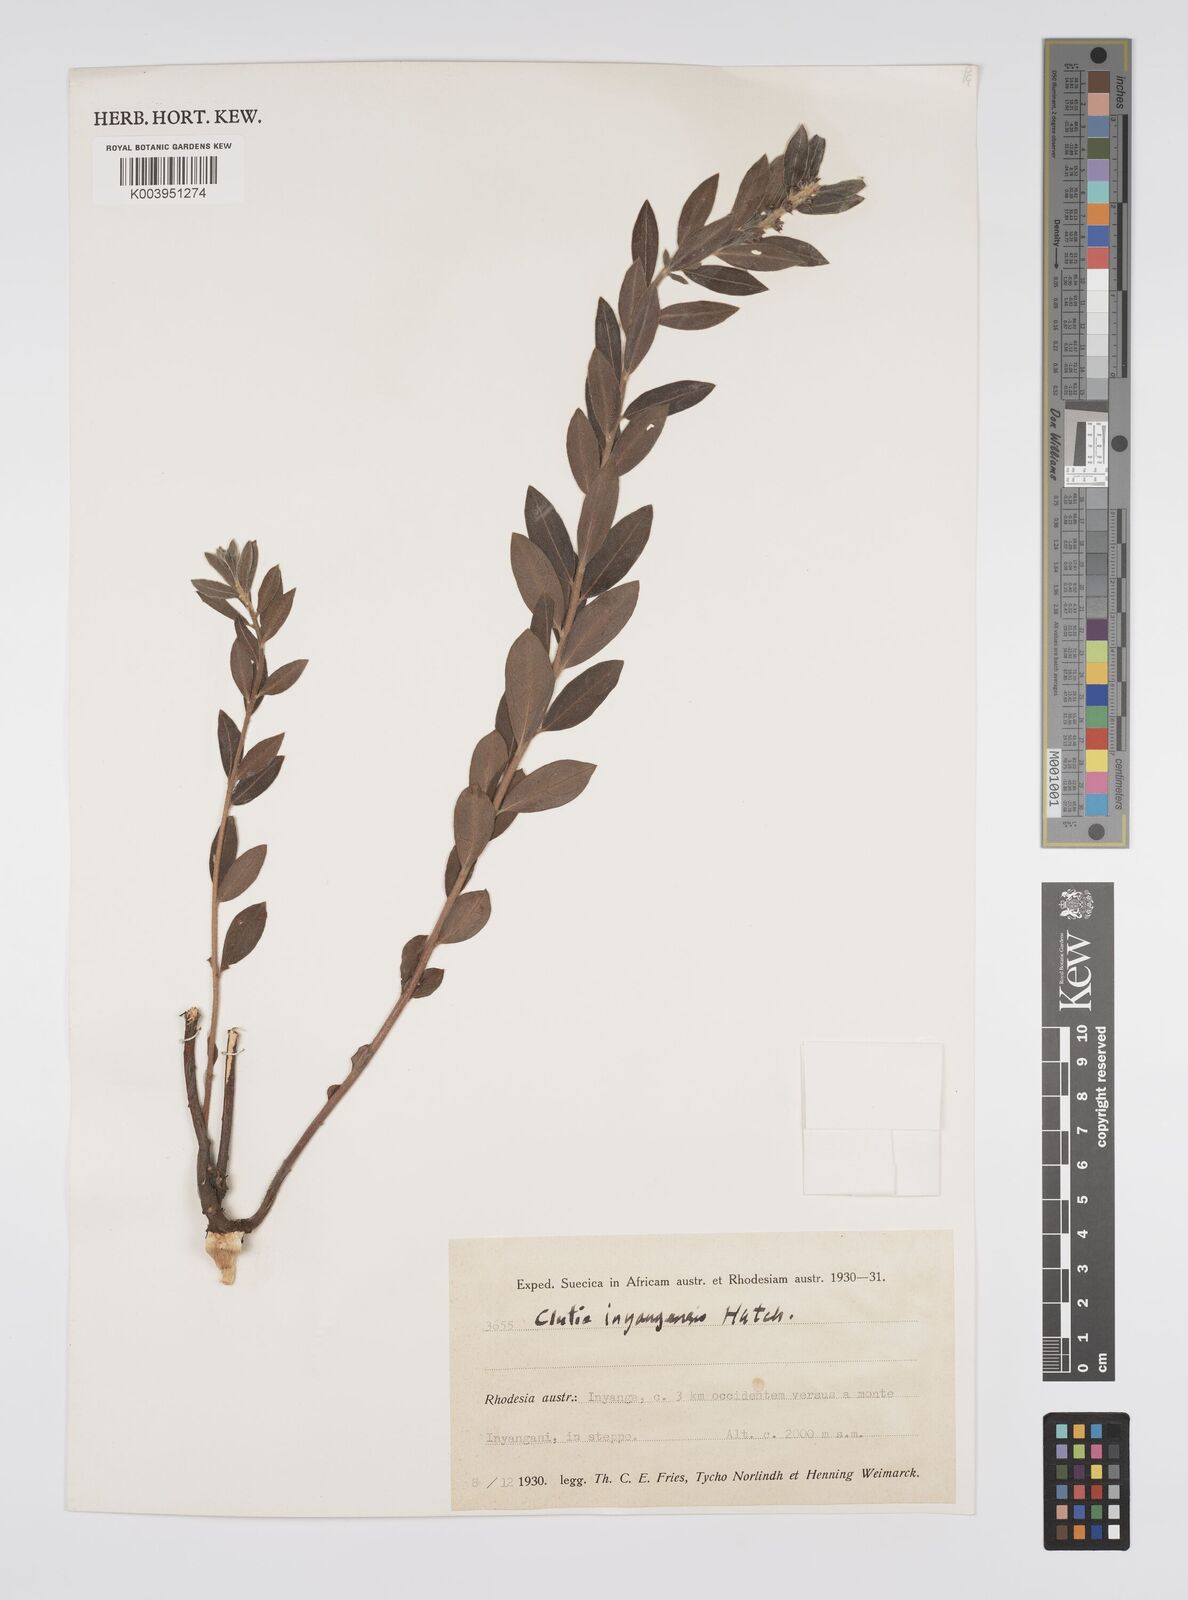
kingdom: Plantae
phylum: Tracheophyta
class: Magnoliopsida
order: Malpighiales
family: Peraceae
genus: Clutia
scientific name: Clutia
